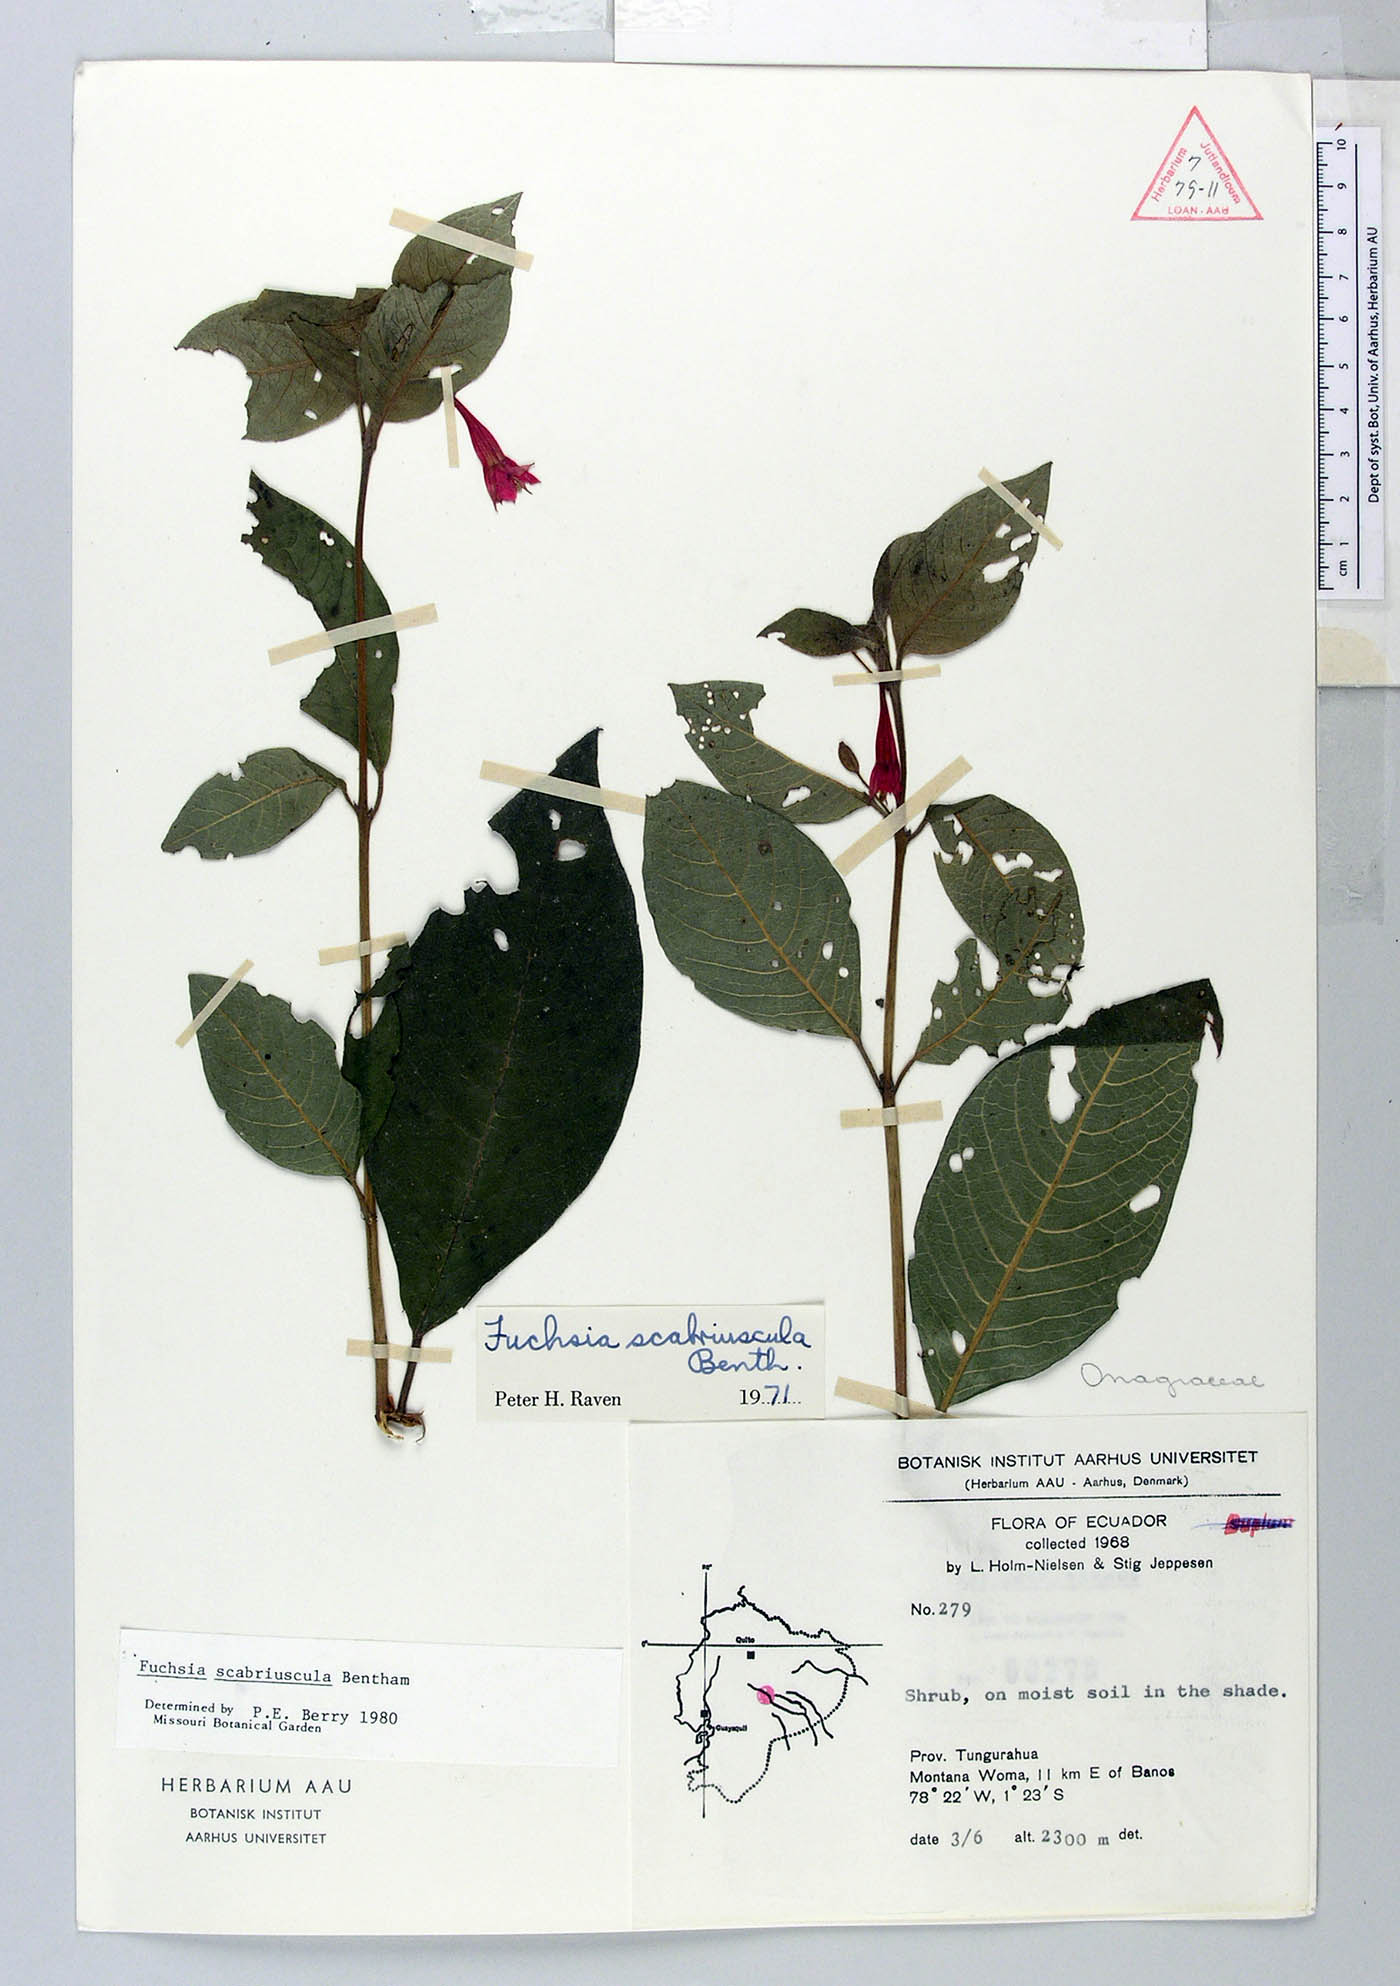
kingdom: Plantae
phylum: Tracheophyta
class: Magnoliopsida
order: Myrtales
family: Onagraceae
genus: Fuchsia
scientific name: Fuchsia scabriuscula
